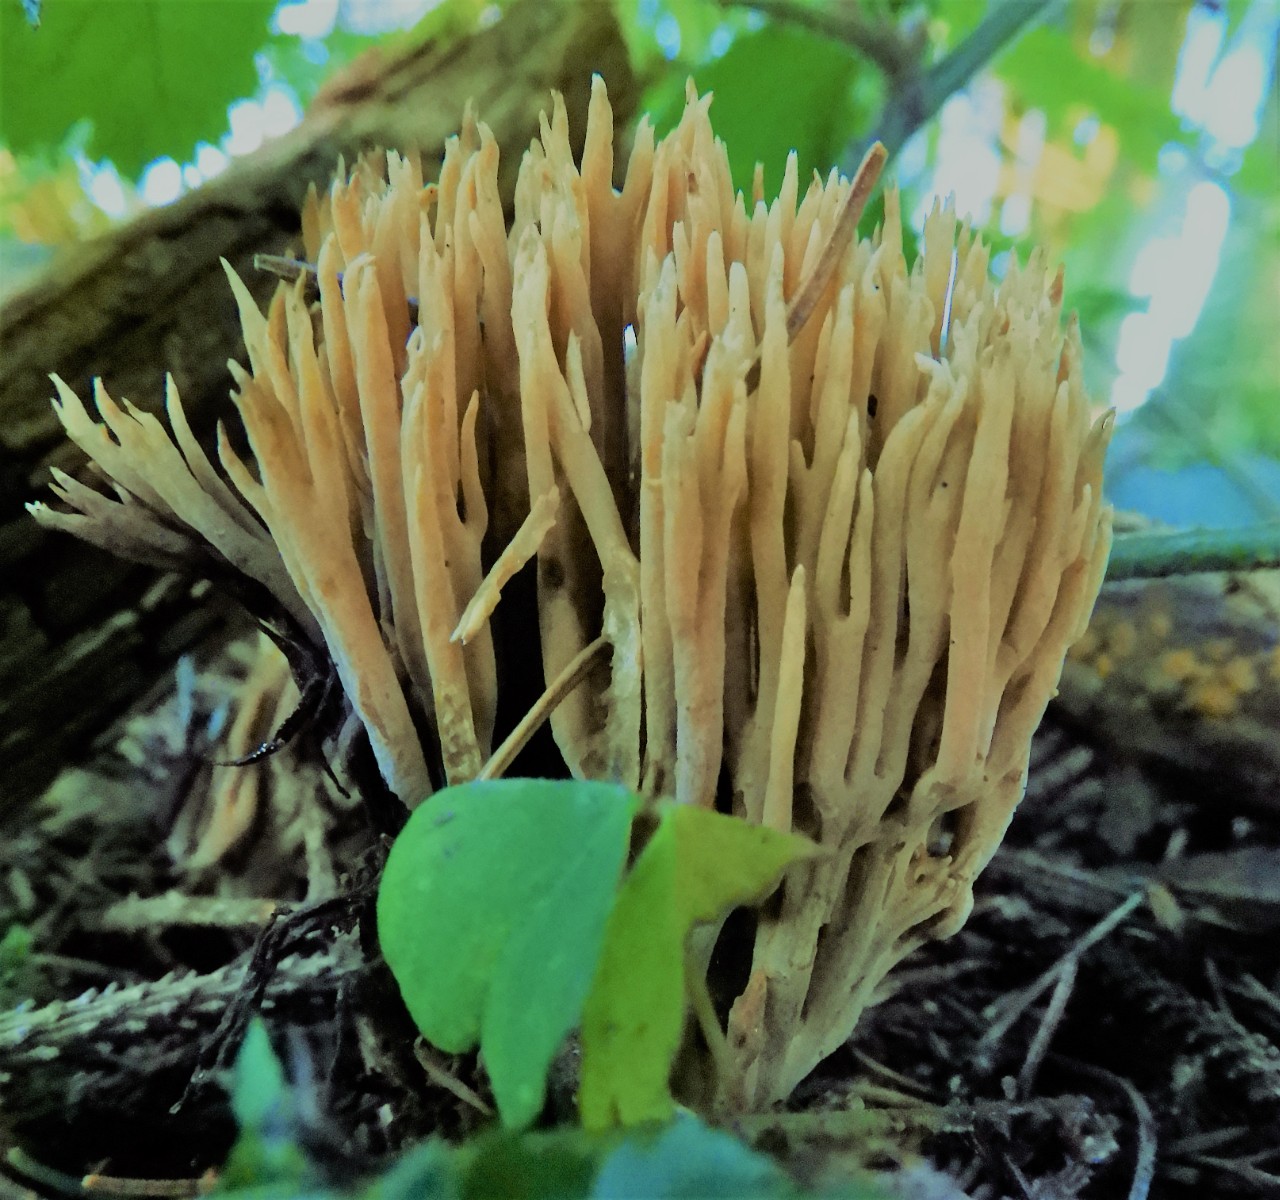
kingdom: Fungi
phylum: Basidiomycota
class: Agaricomycetes
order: Gomphales
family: Gomphaceae
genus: Phaeoclavulina
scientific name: Phaeoclavulina eumorpha
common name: gran-koralsvamp
